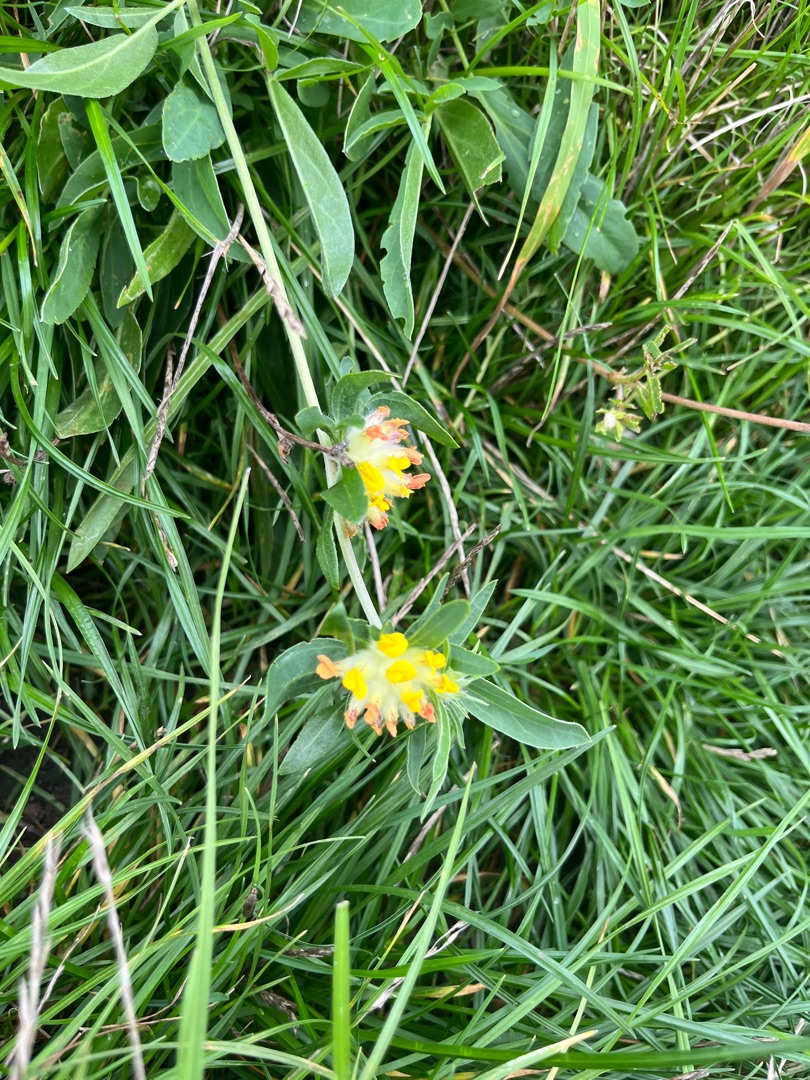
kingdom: Plantae
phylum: Tracheophyta
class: Magnoliopsida
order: Fabales
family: Fabaceae
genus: Anthyllis
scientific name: Anthyllis vulneraria
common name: Rundbælg
